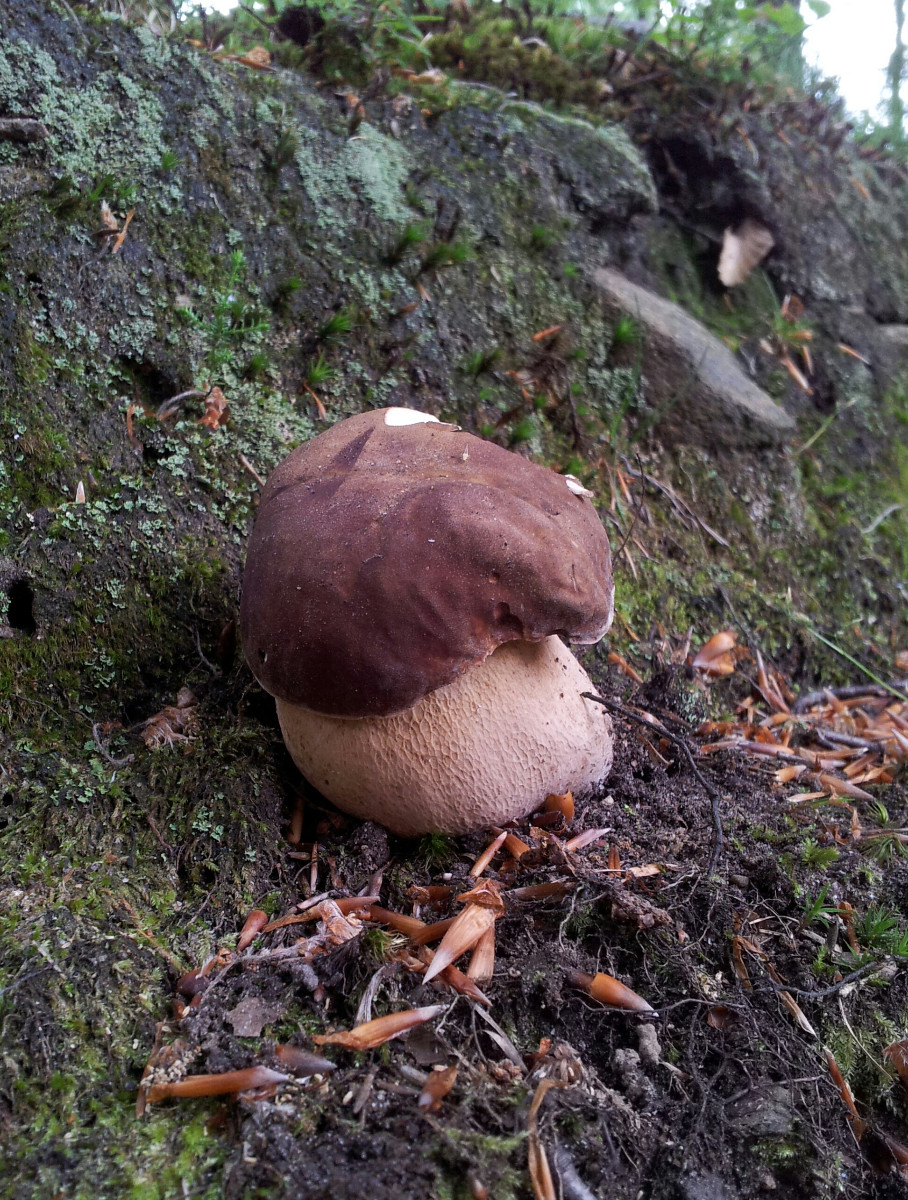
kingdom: Fungi
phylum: Basidiomycota
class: Agaricomycetes
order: Boletales
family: Boletaceae
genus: Boletus
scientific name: Boletus reticulatus
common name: sommer-rørhat
